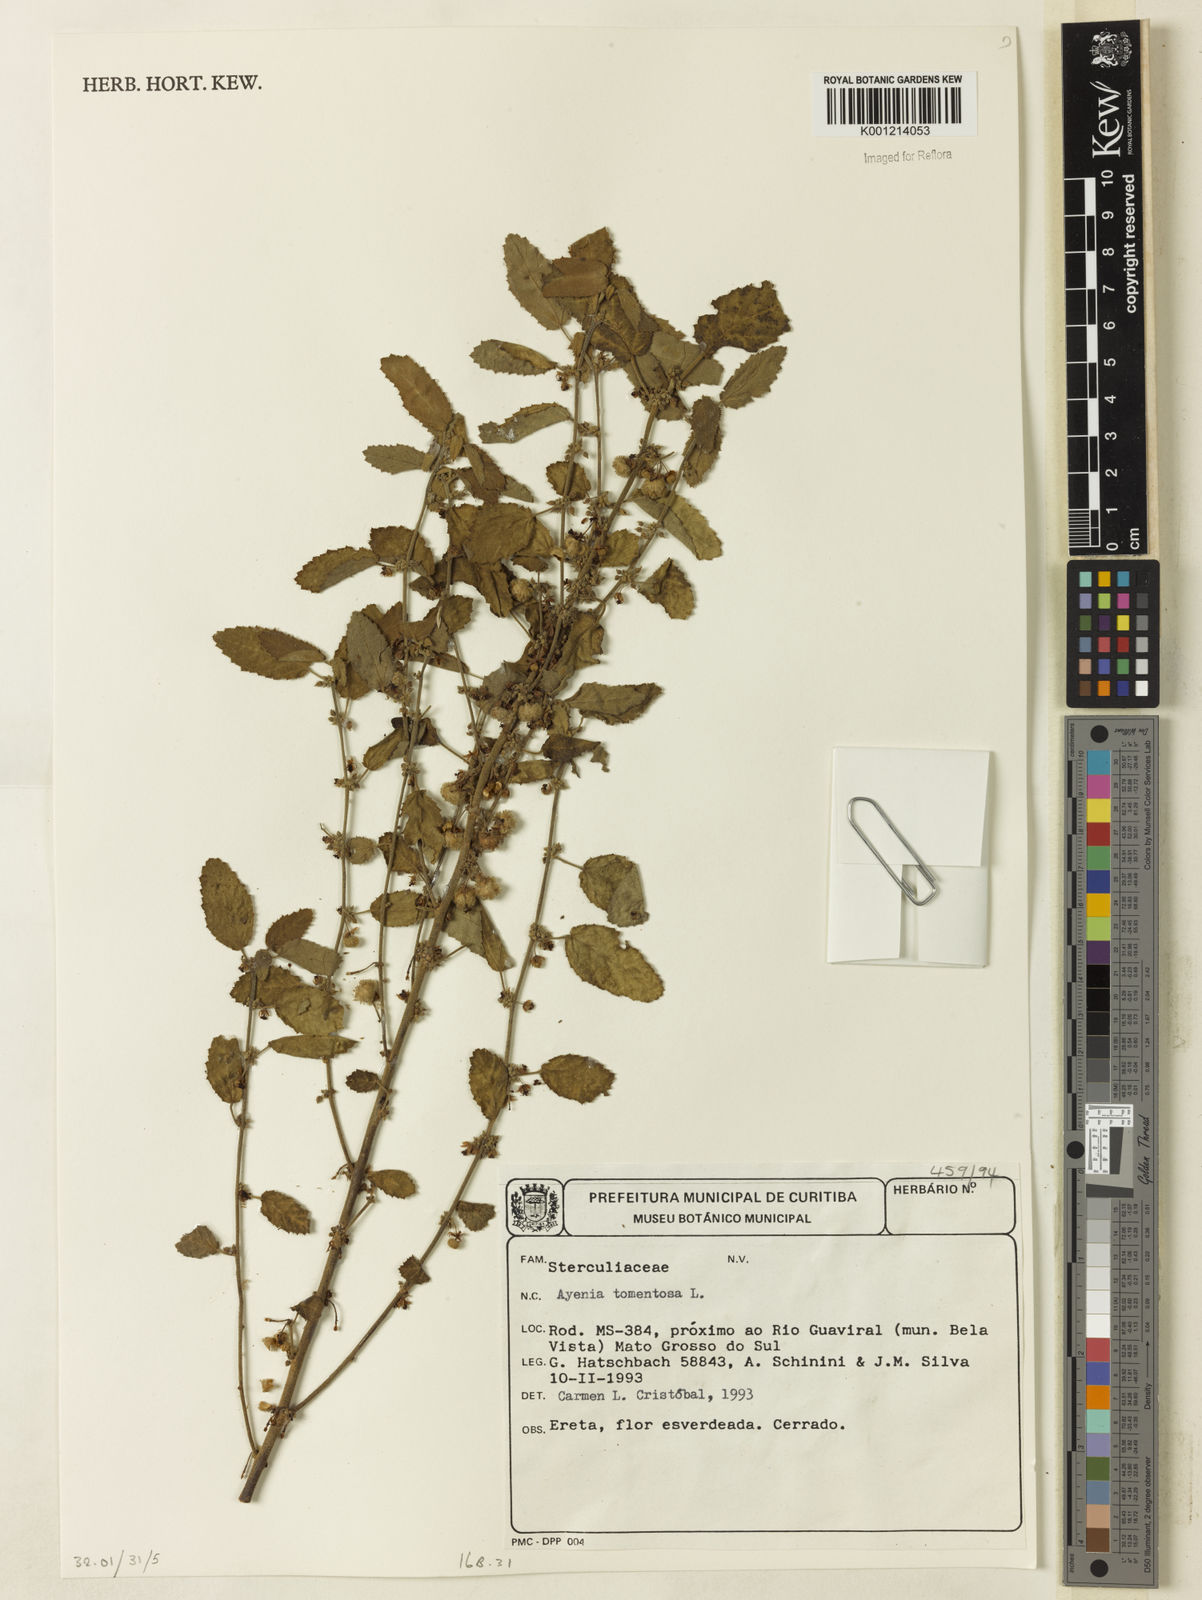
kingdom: Plantae
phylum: Tracheophyta
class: Magnoliopsida
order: Malvales
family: Malvaceae
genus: Ayenia
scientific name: Ayenia tomentosa
